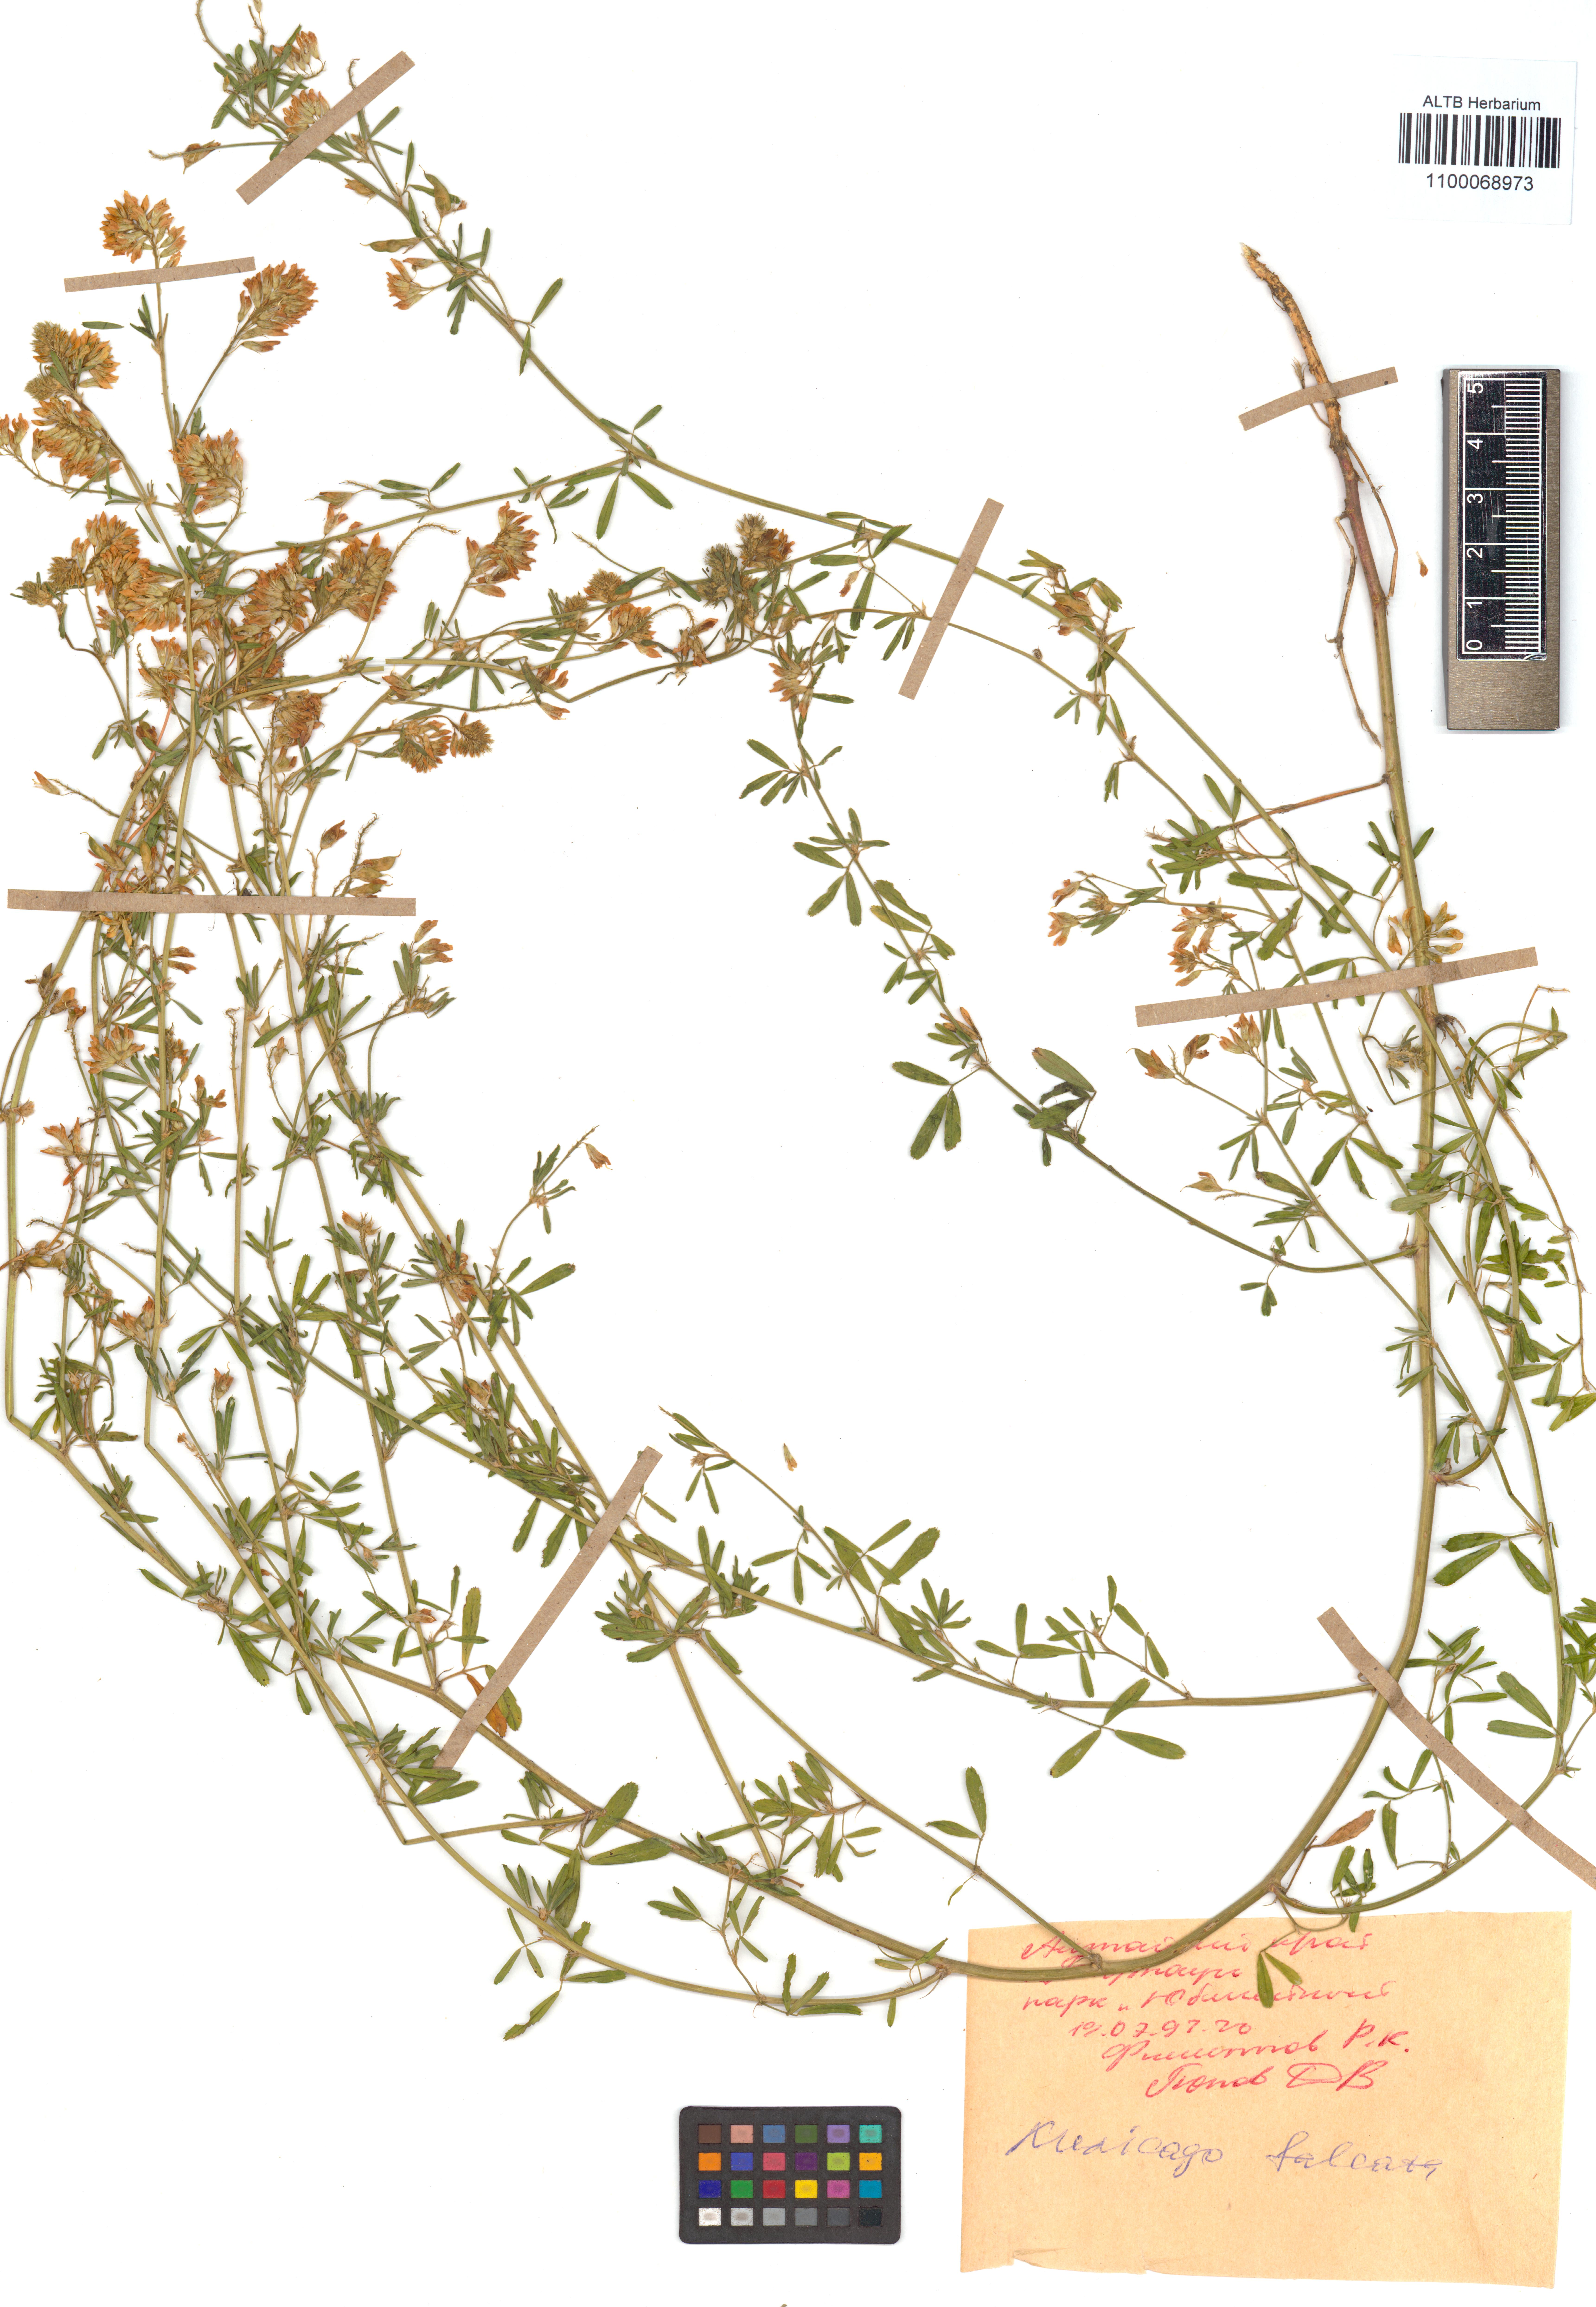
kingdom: Plantae
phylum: Tracheophyta
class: Magnoliopsida
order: Fabales
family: Fabaceae
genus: Medicago
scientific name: Medicago falcata
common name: Sickle medick
